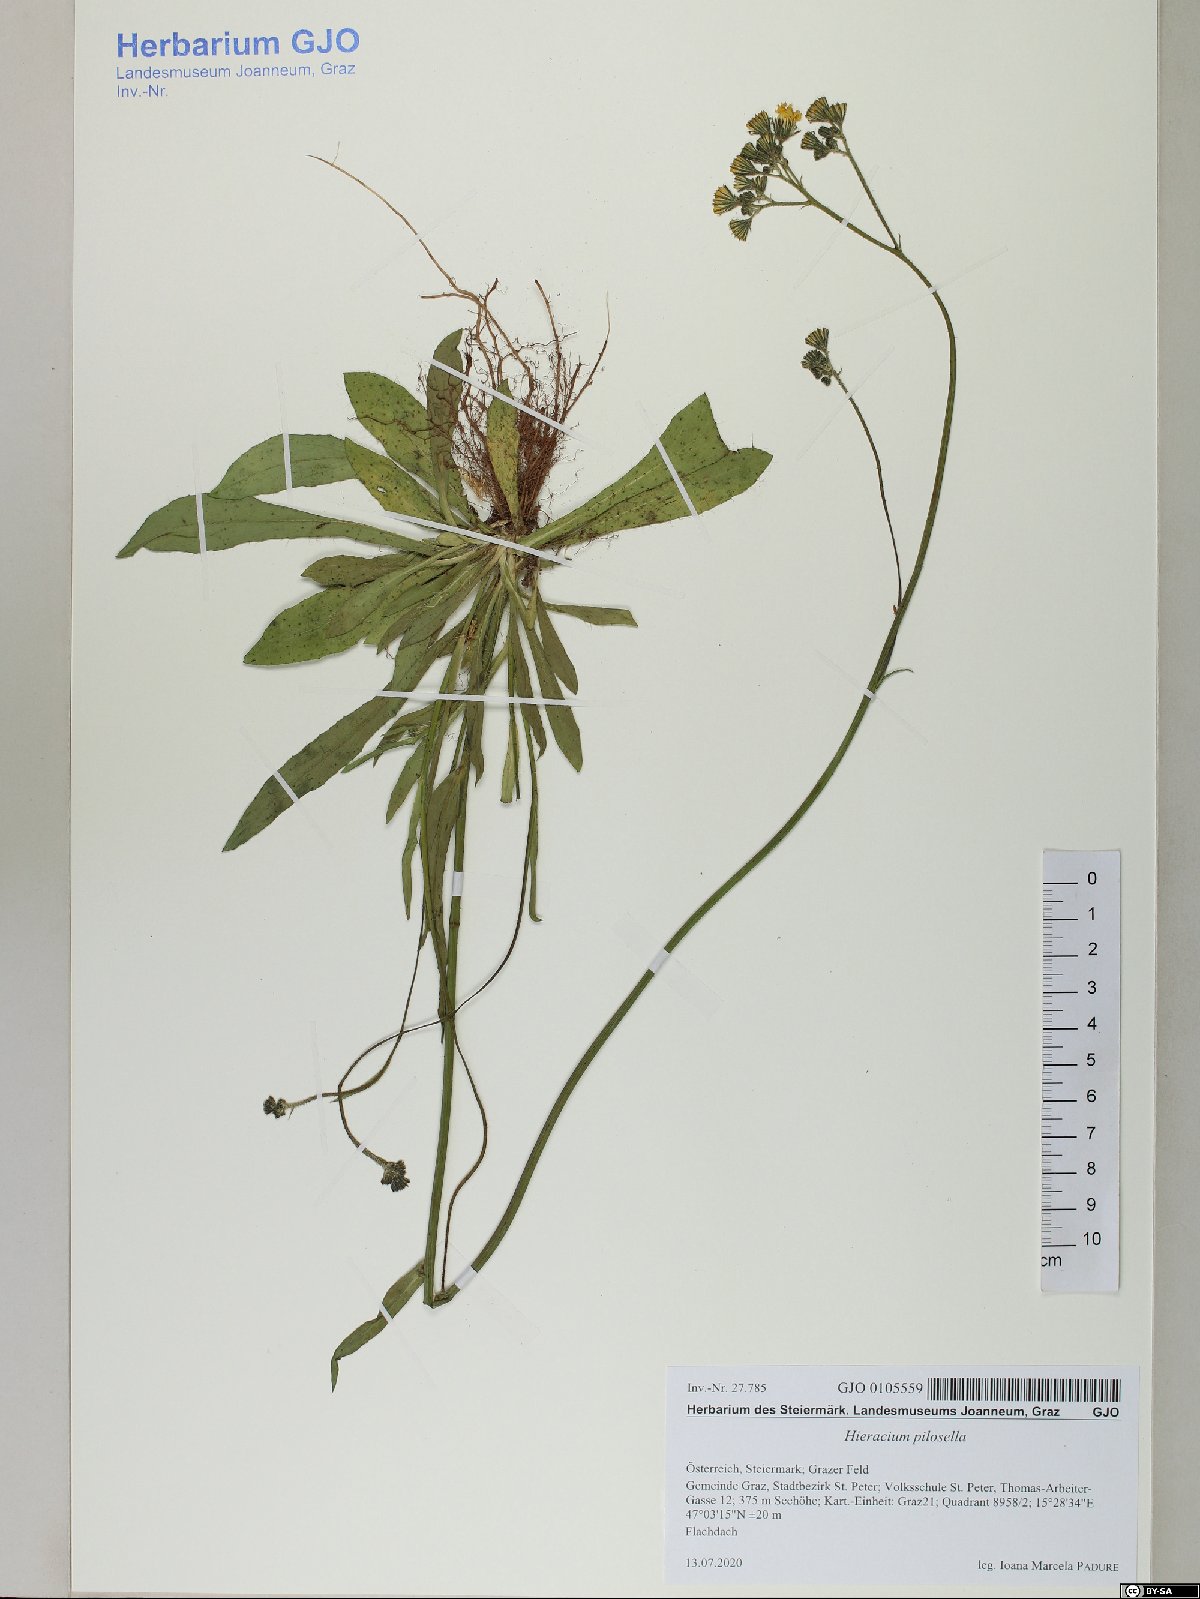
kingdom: Plantae
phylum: Tracheophyta
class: Magnoliopsida
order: Asterales
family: Asteraceae
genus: Pilosella
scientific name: Pilosella officinarum
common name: Mouse-ear hawkweed
